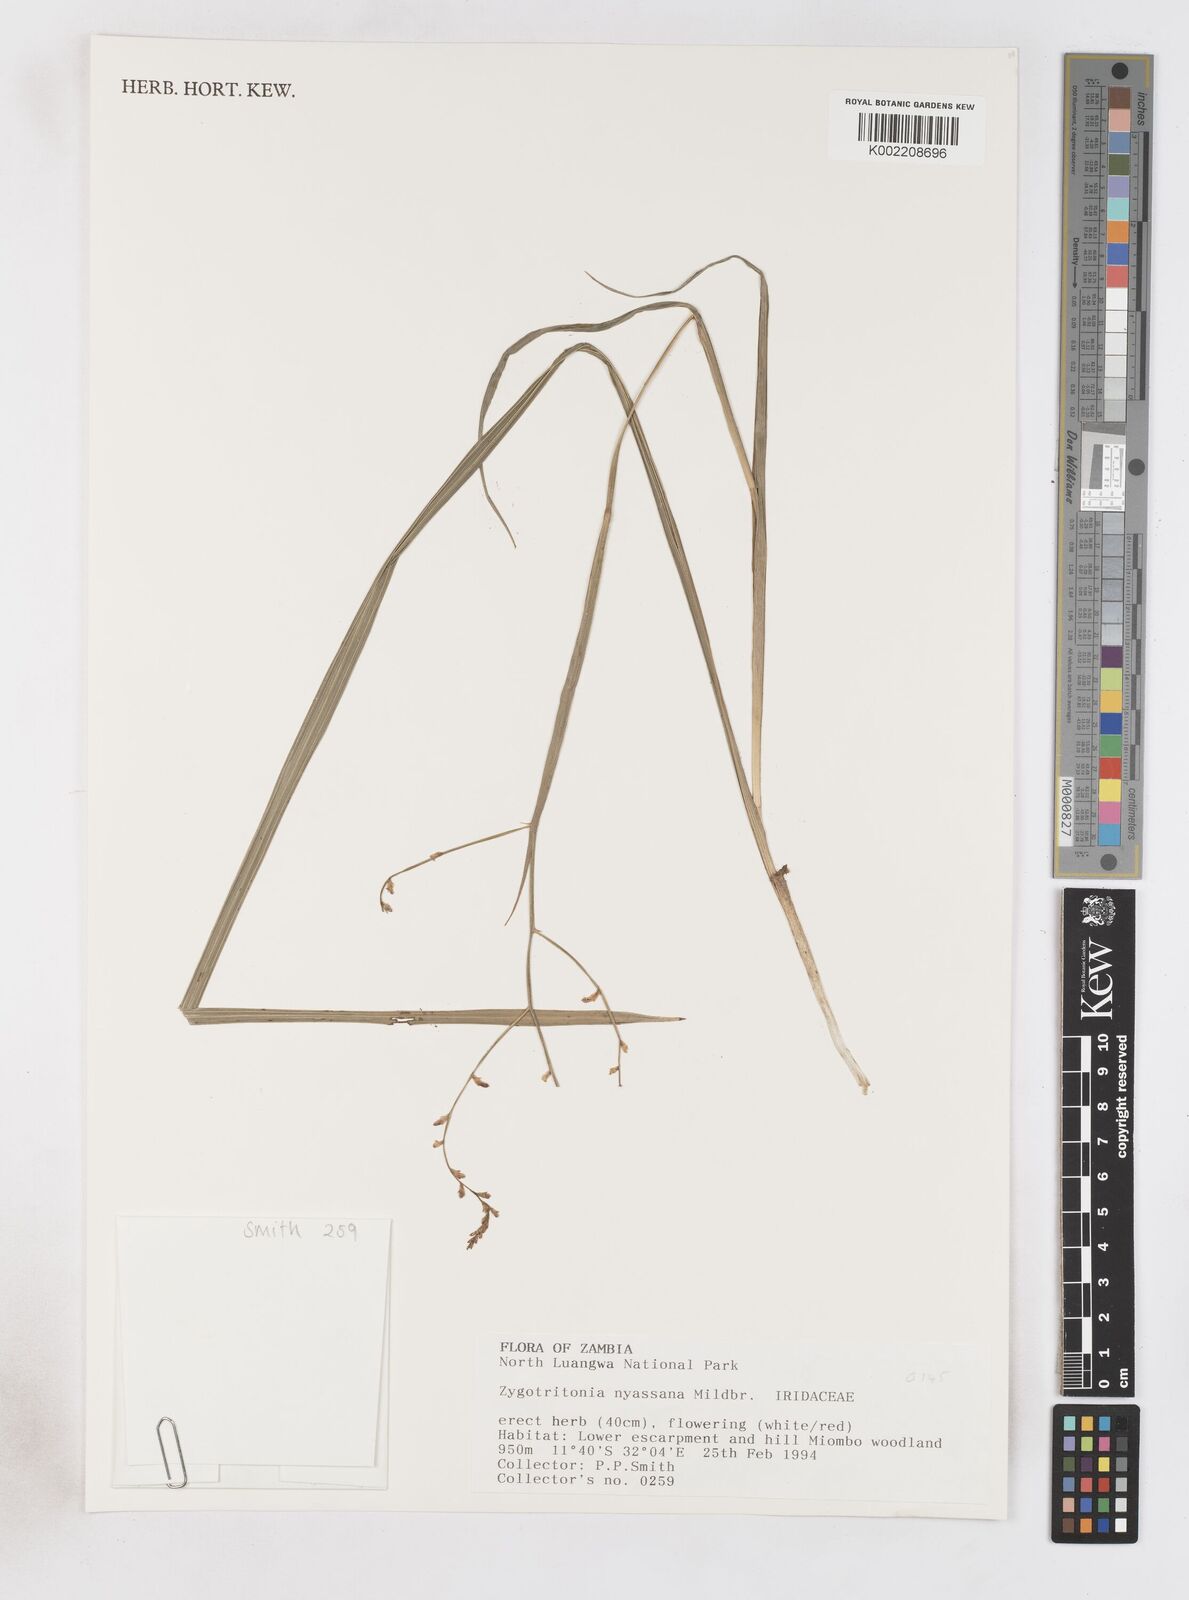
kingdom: Plantae
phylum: Tracheophyta
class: Liliopsida
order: Asparagales
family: Iridaceae
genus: Zygotritonia
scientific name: Zygotritonia nyassana
